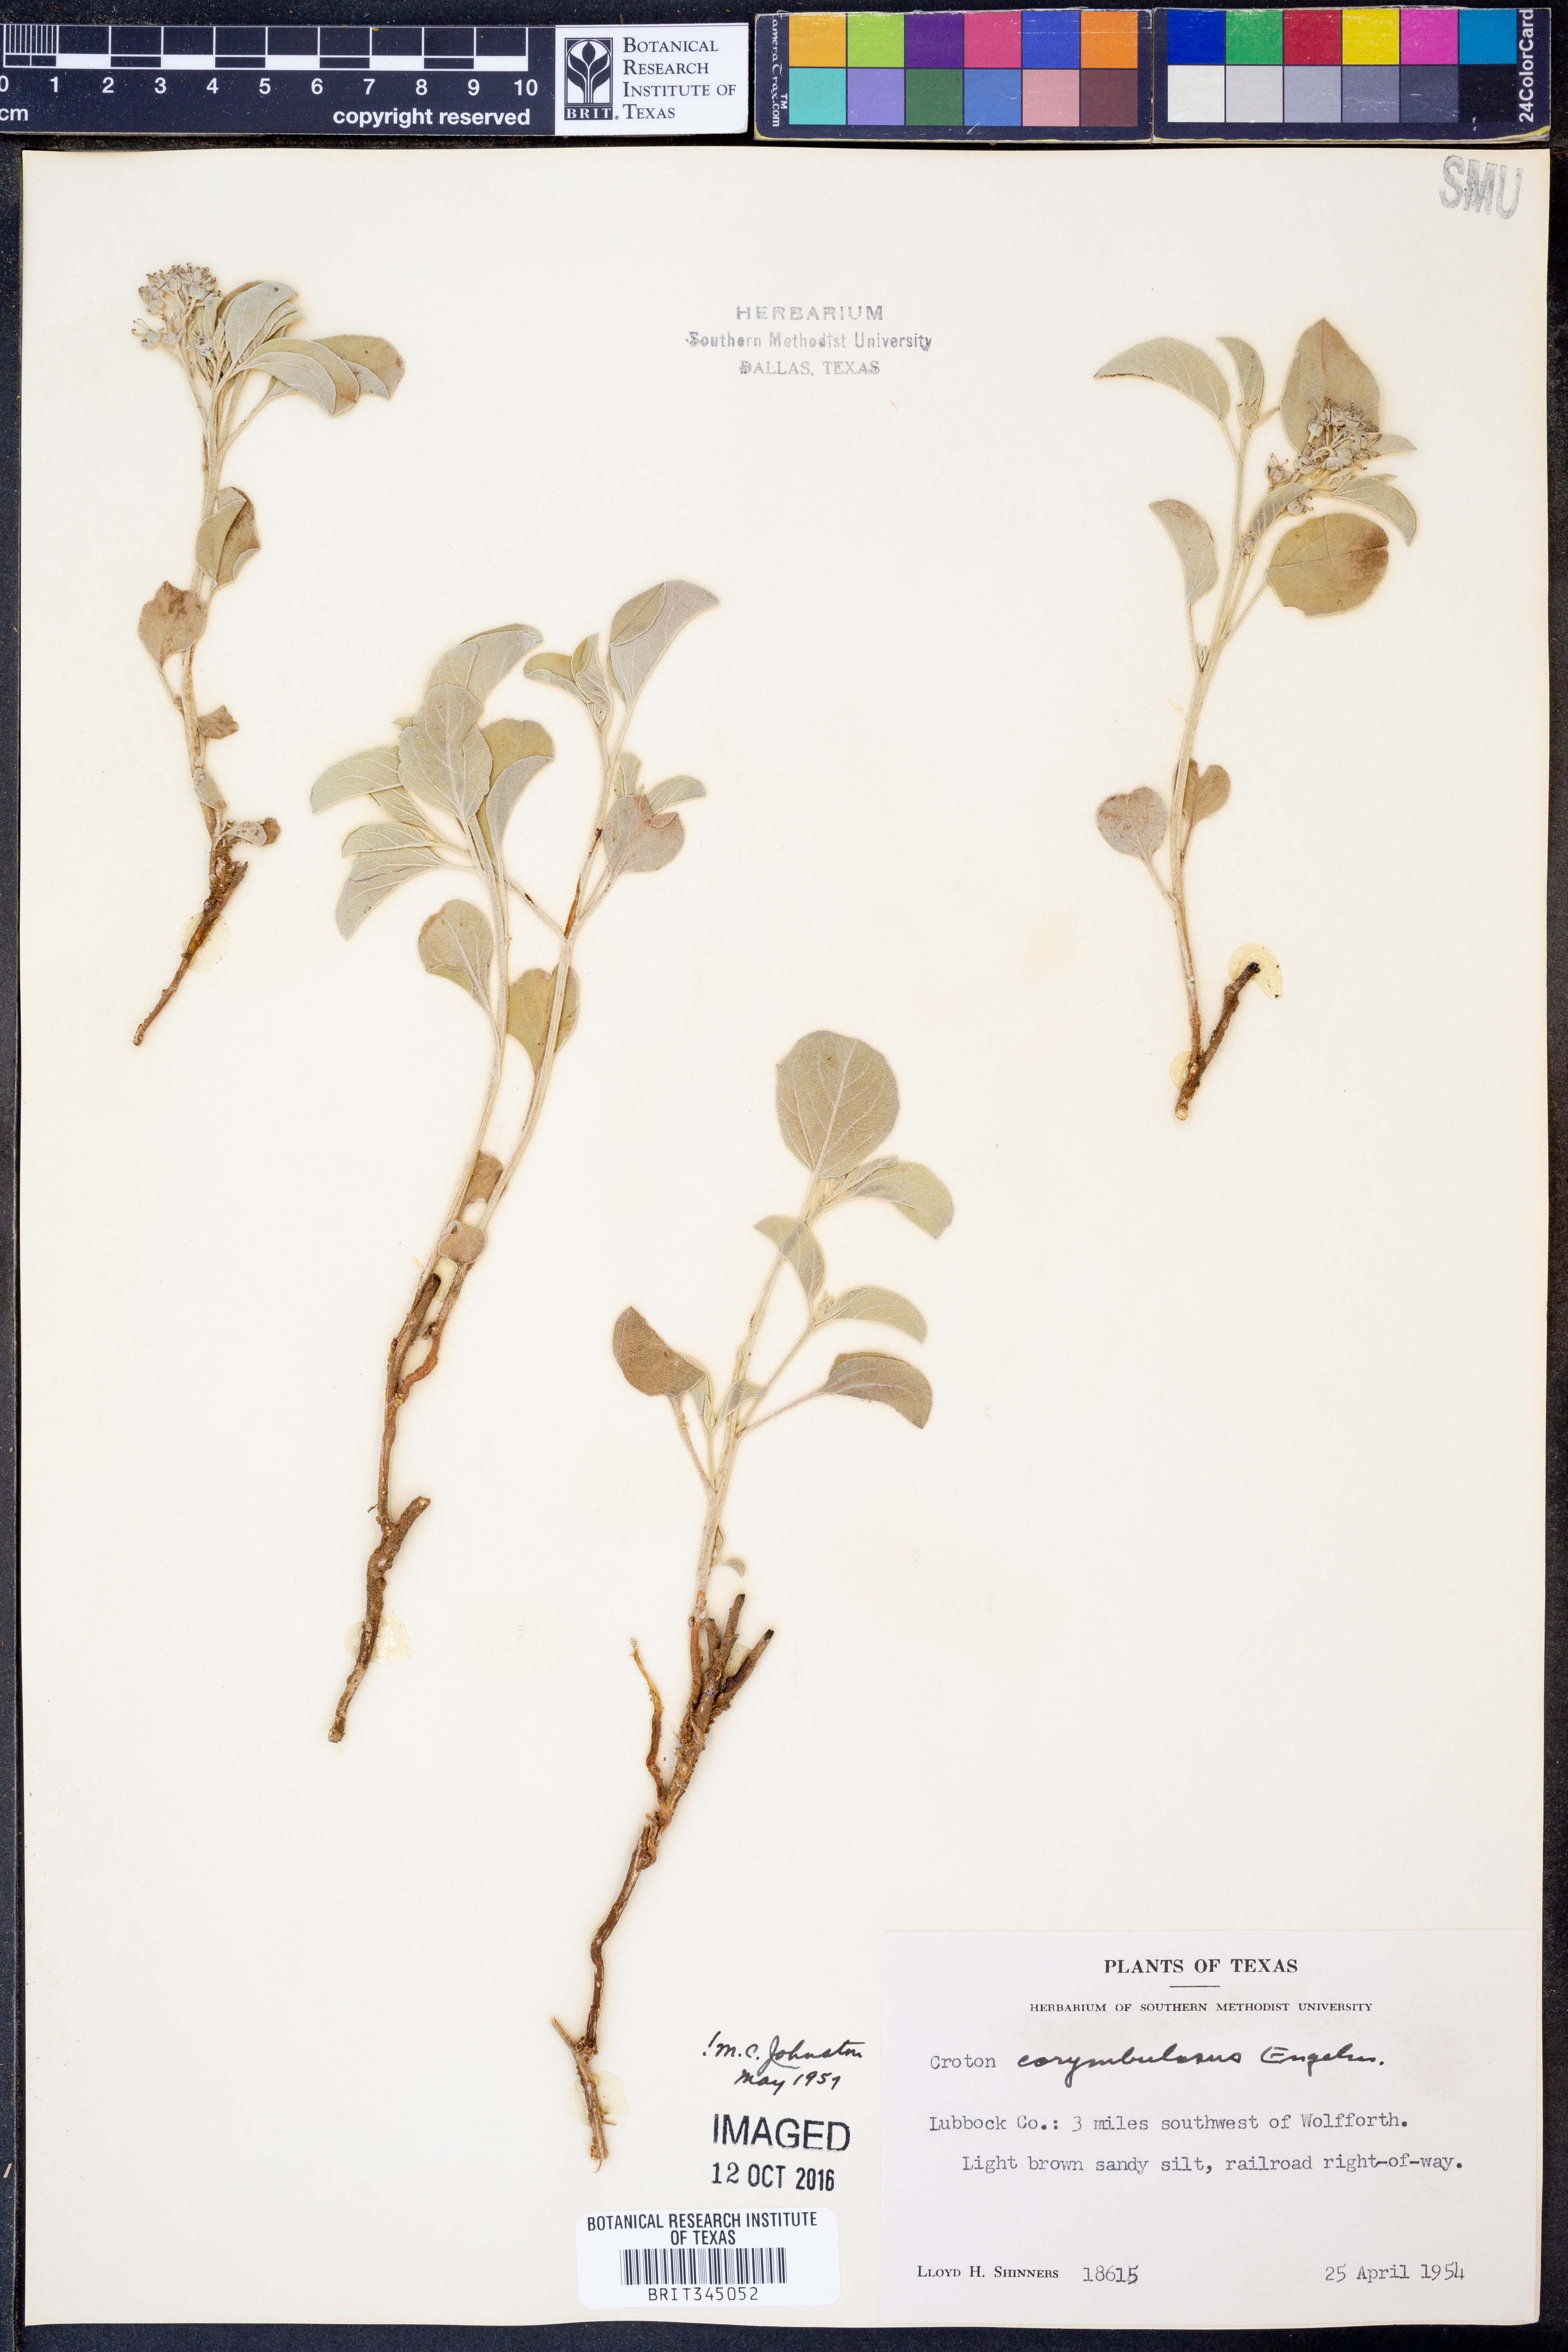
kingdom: Plantae
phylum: Tracheophyta
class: Magnoliopsida
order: Malpighiales
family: Euphorbiaceae
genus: Croton
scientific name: Croton pottsii
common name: Leatherweed
